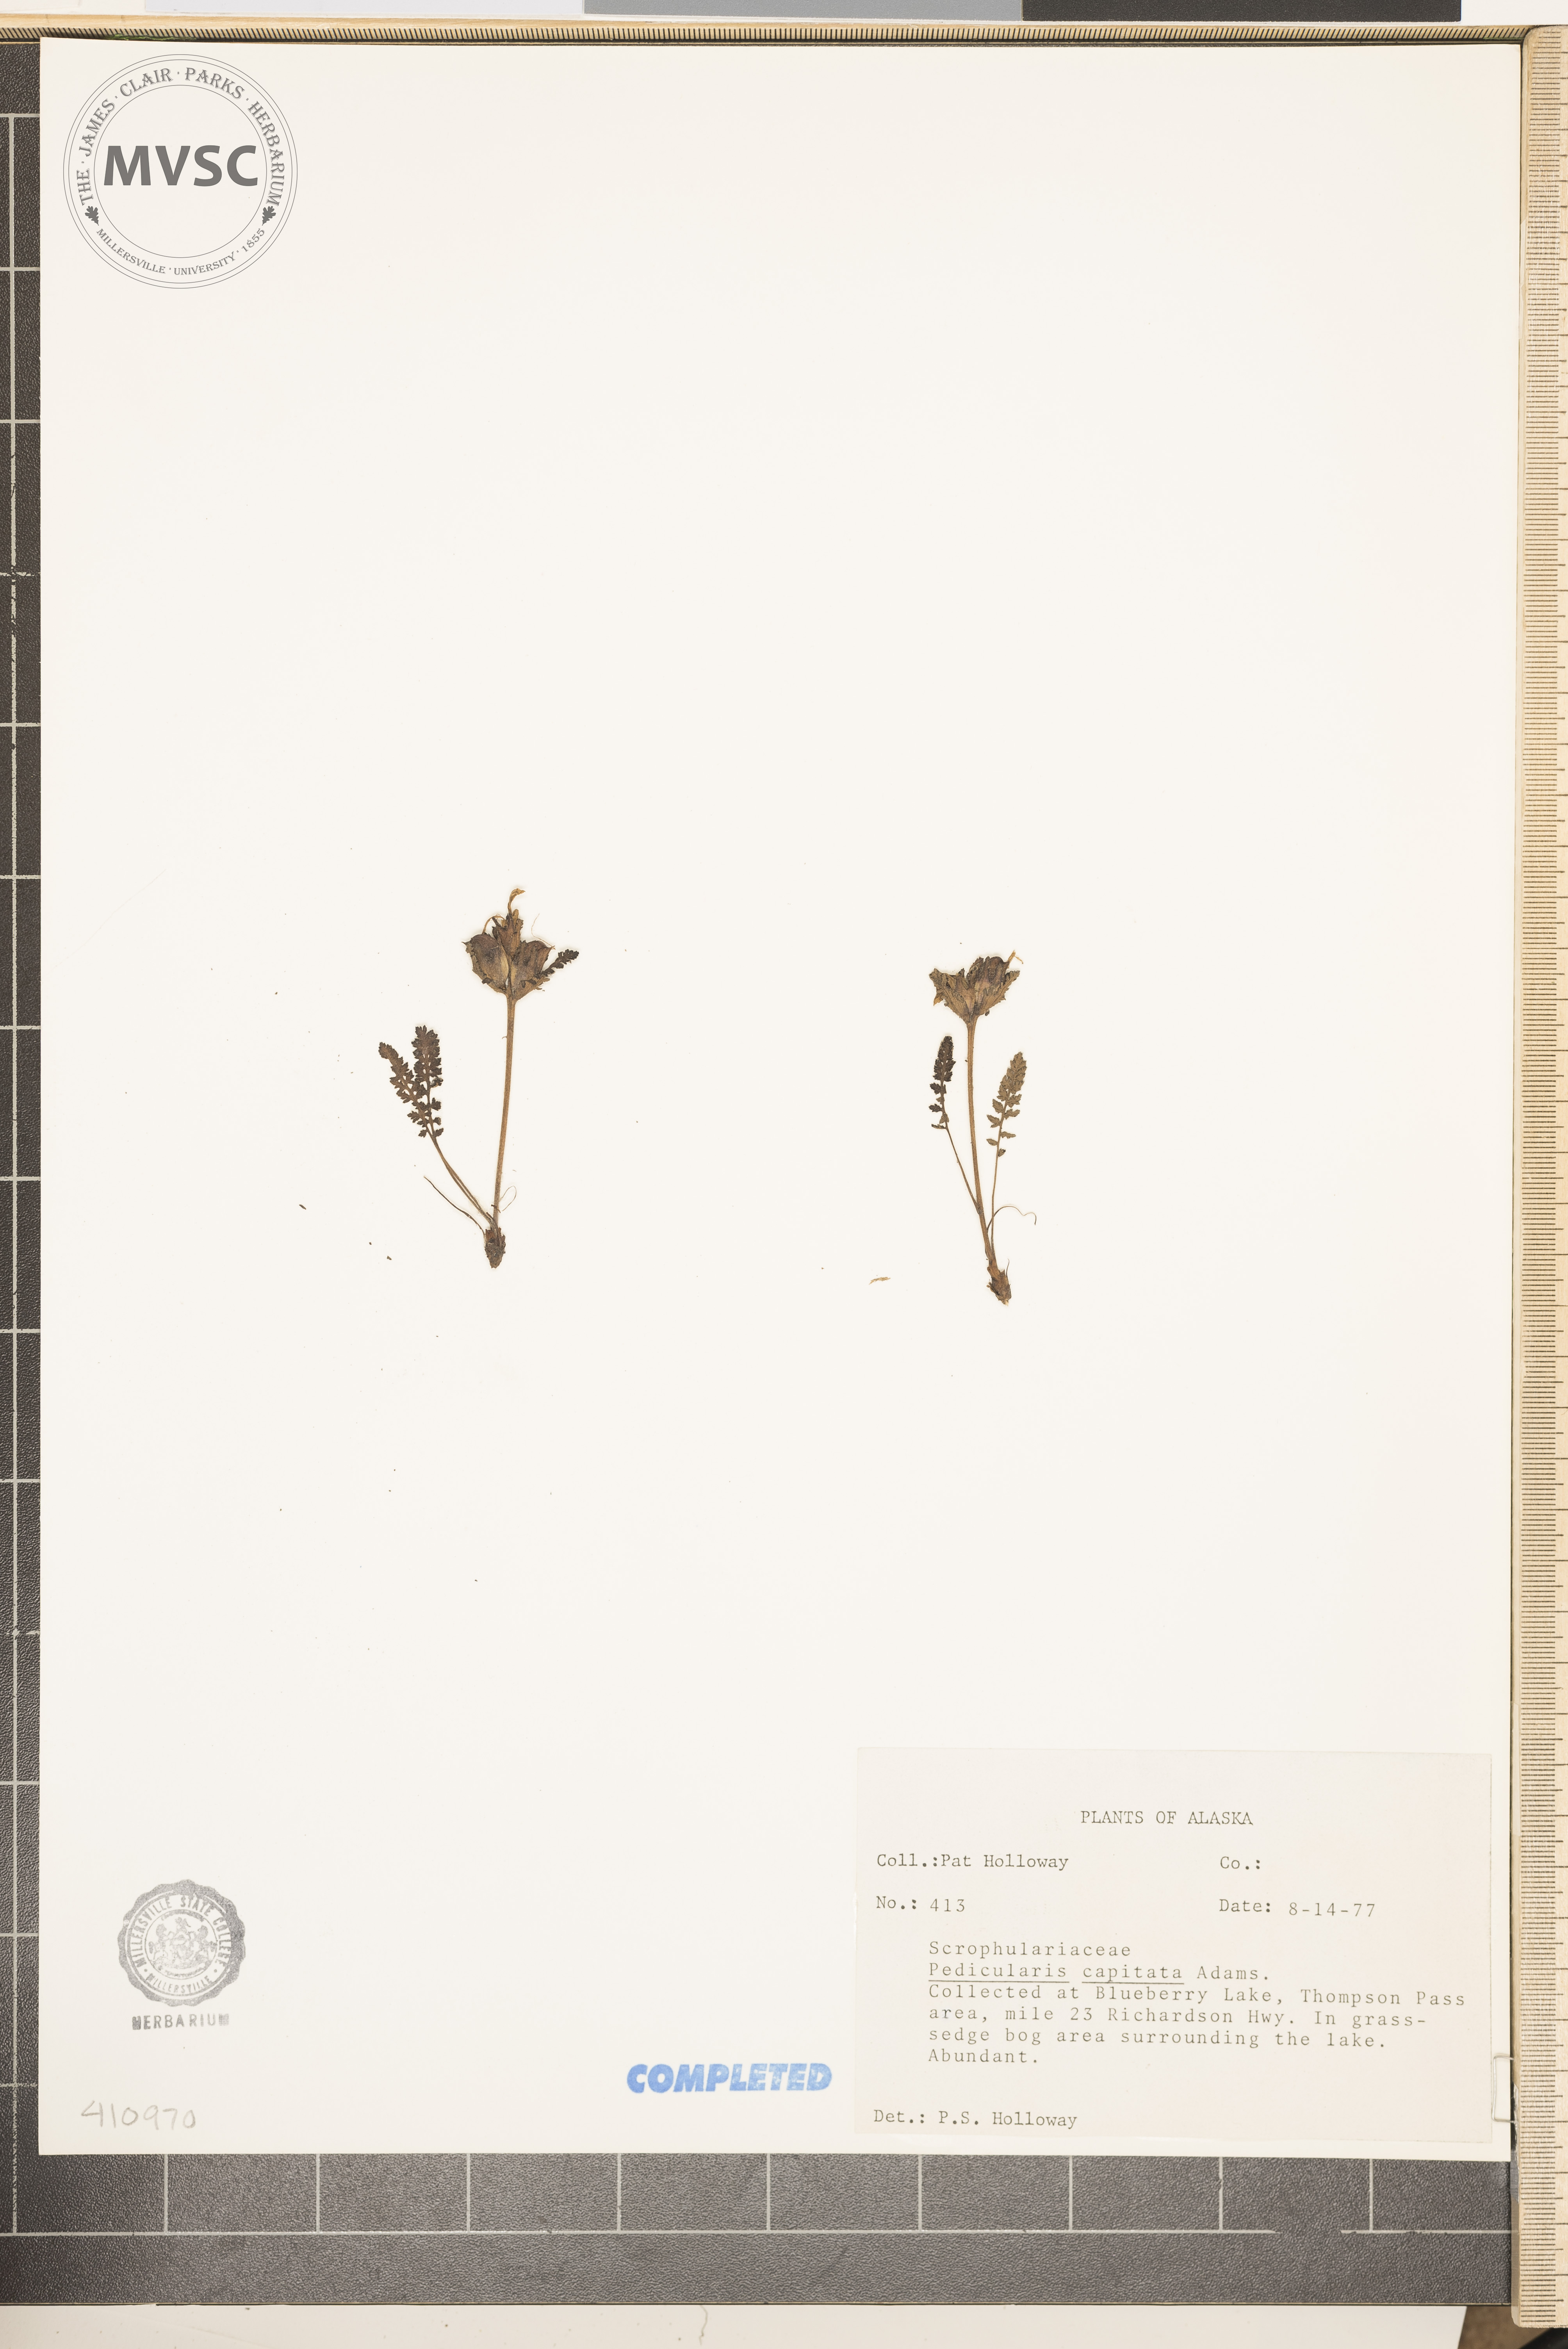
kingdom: Plantae
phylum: Tracheophyta
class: Magnoliopsida
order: Lamiales
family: Orobanchaceae
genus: Pedicularis
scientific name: Pedicularis capitata
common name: Capitate lousewort
